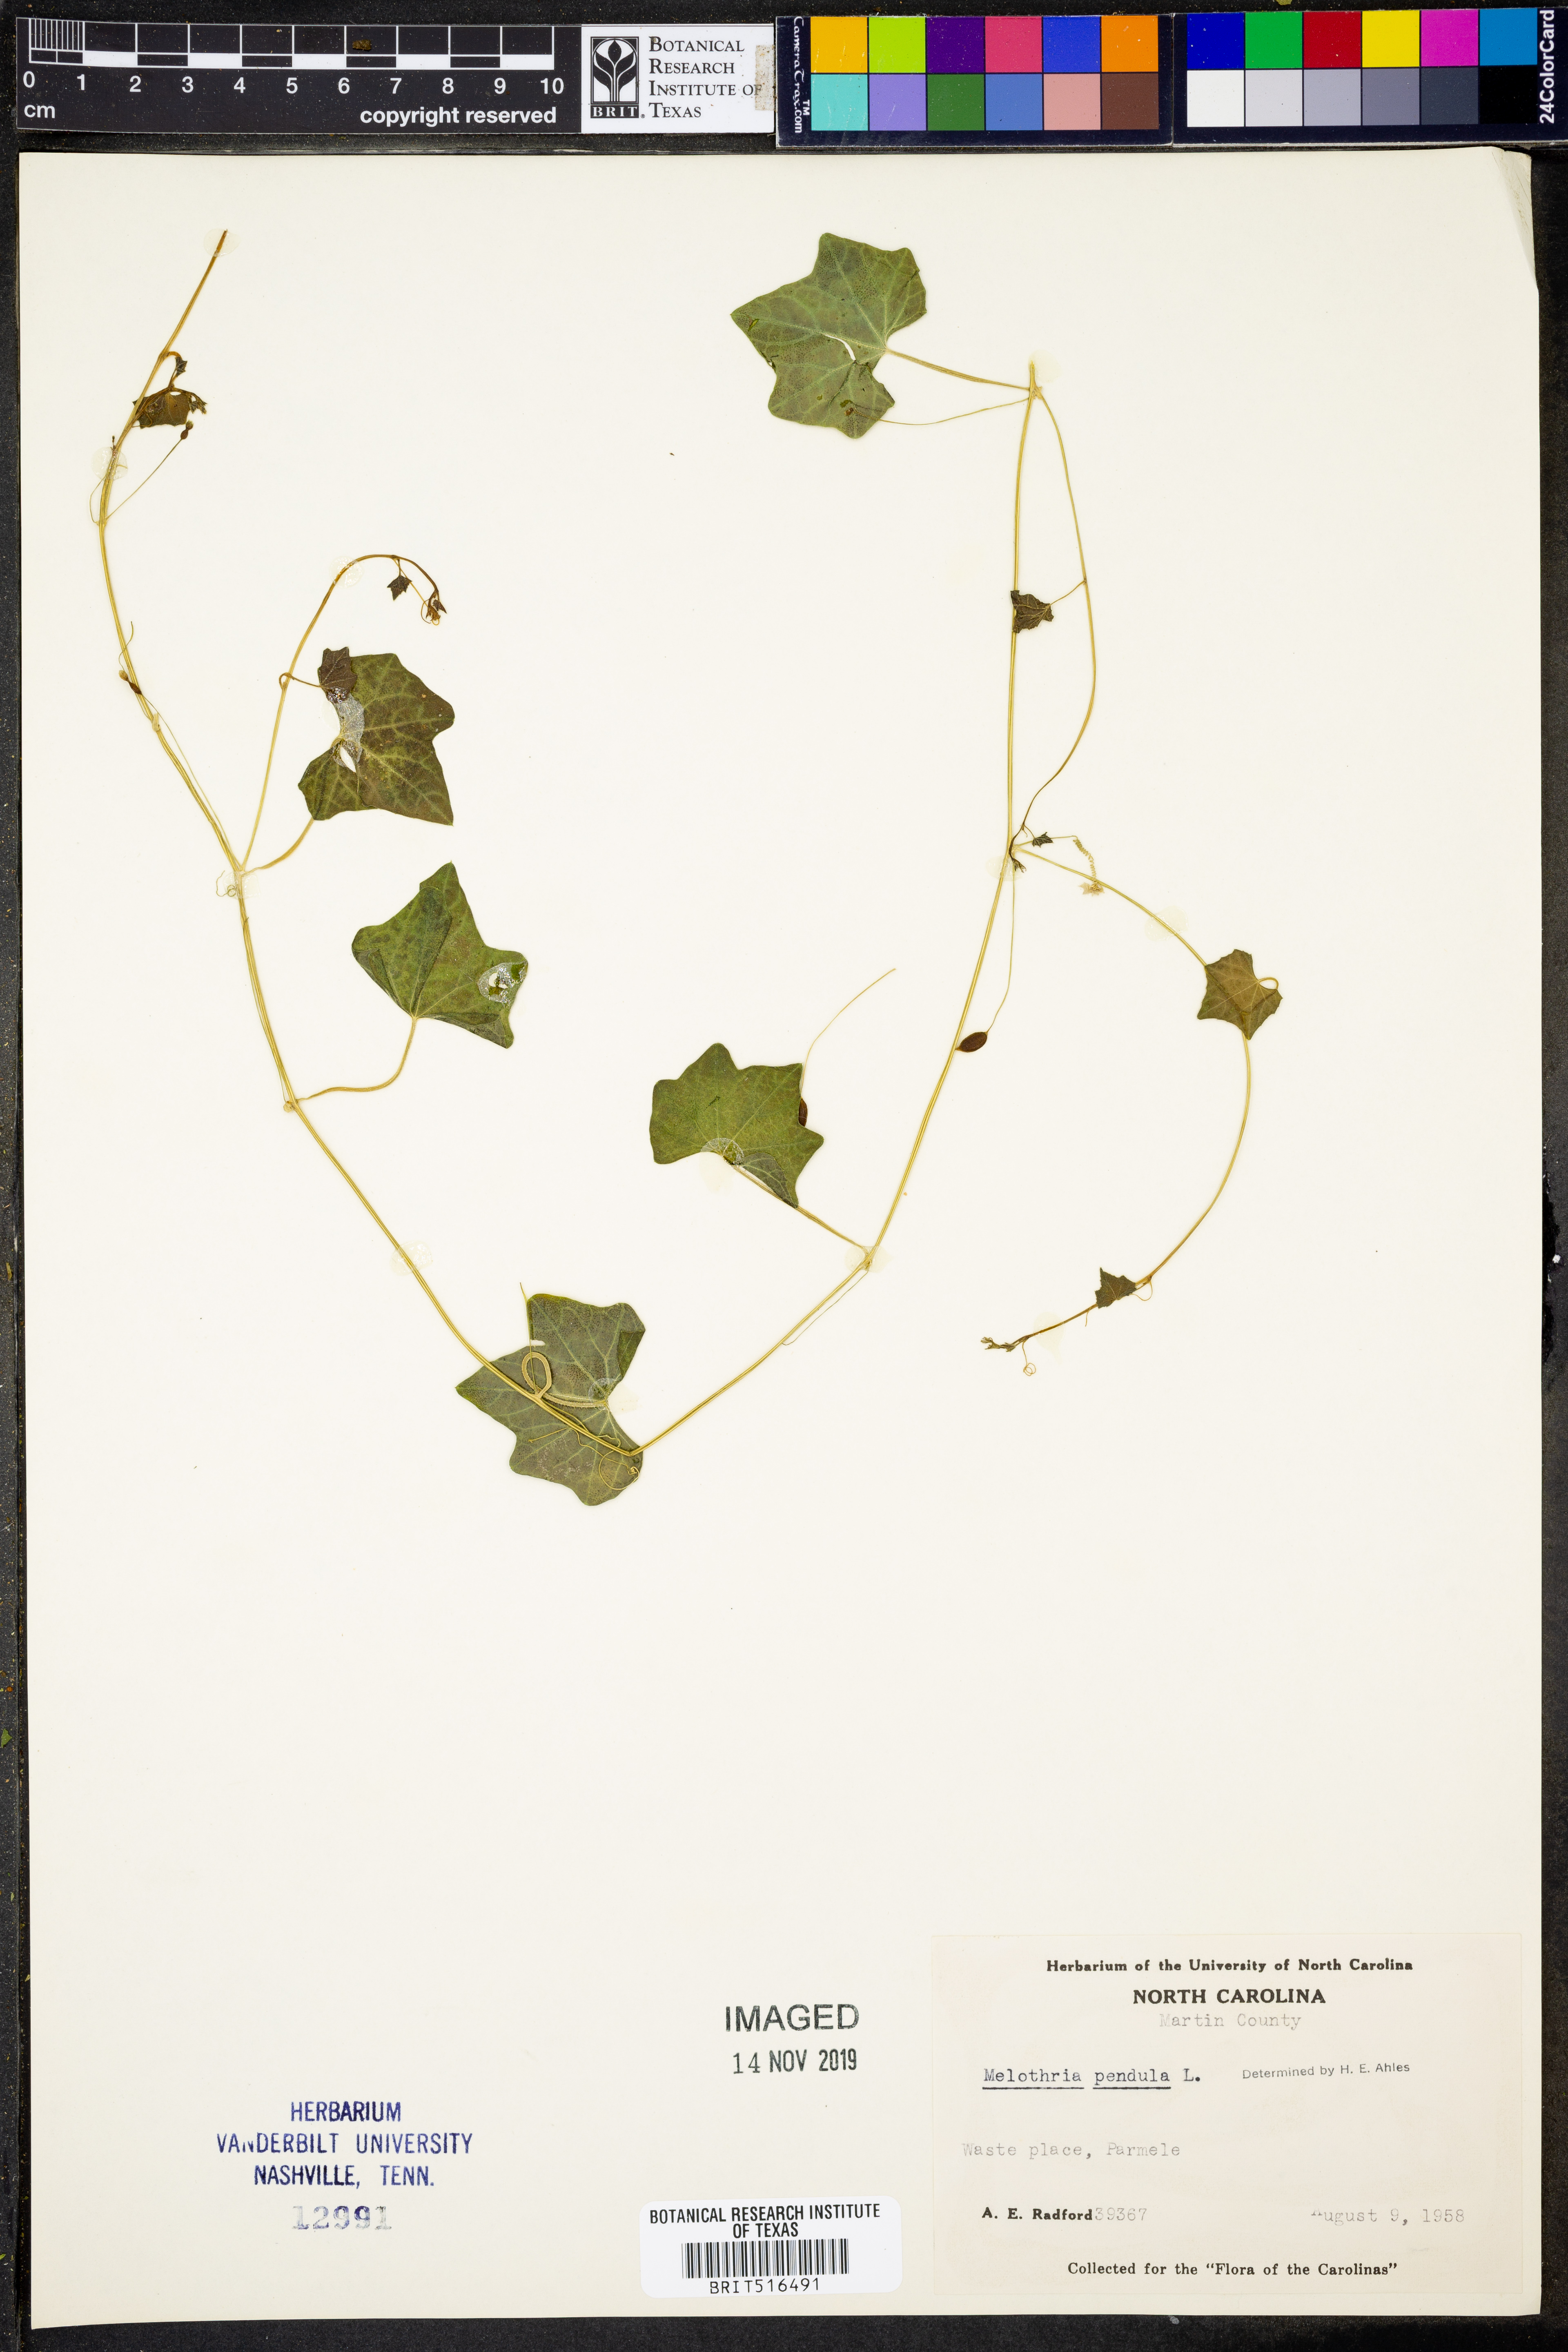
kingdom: Plantae
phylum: Tracheophyta
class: Magnoliopsida
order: Cucurbitales
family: Cucurbitaceae
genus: Melothria
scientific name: Melothria pendula
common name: Creeping-cucumber
